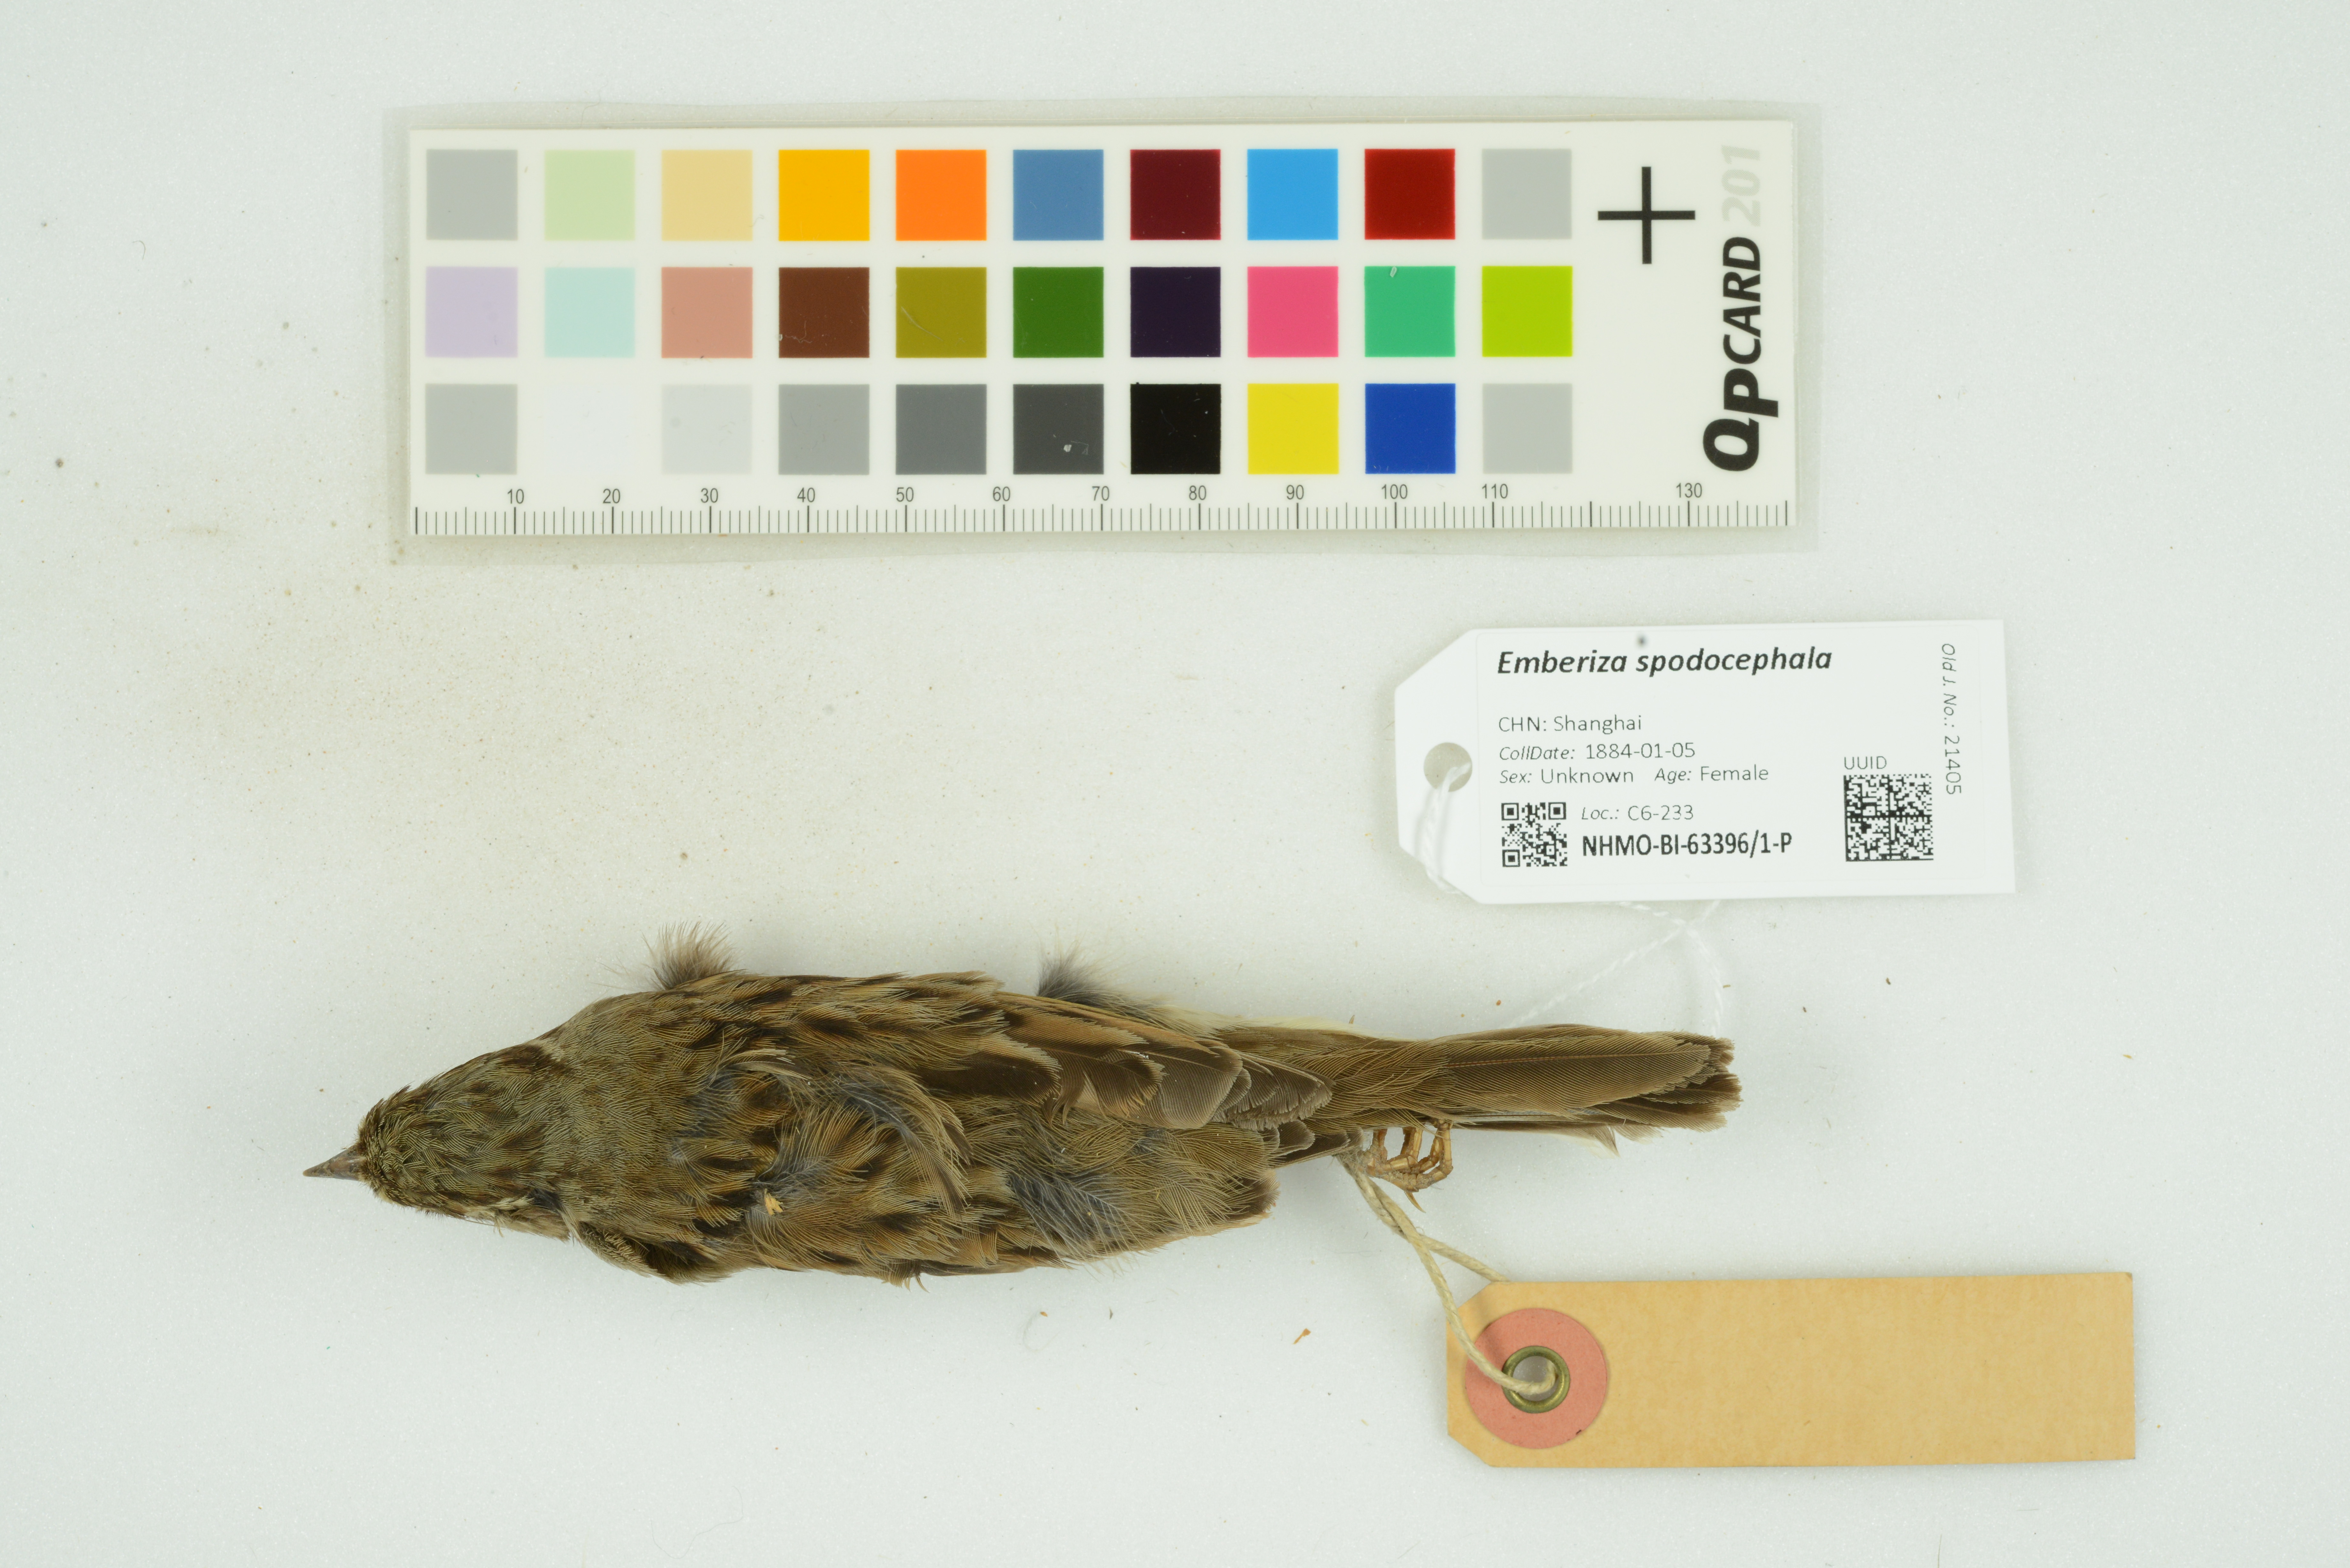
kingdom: Animalia
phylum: Chordata
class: Aves
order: Passeriformes
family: Emberizidae
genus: Emberiza
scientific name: Emberiza spodocephala
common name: Black-faced bunting
